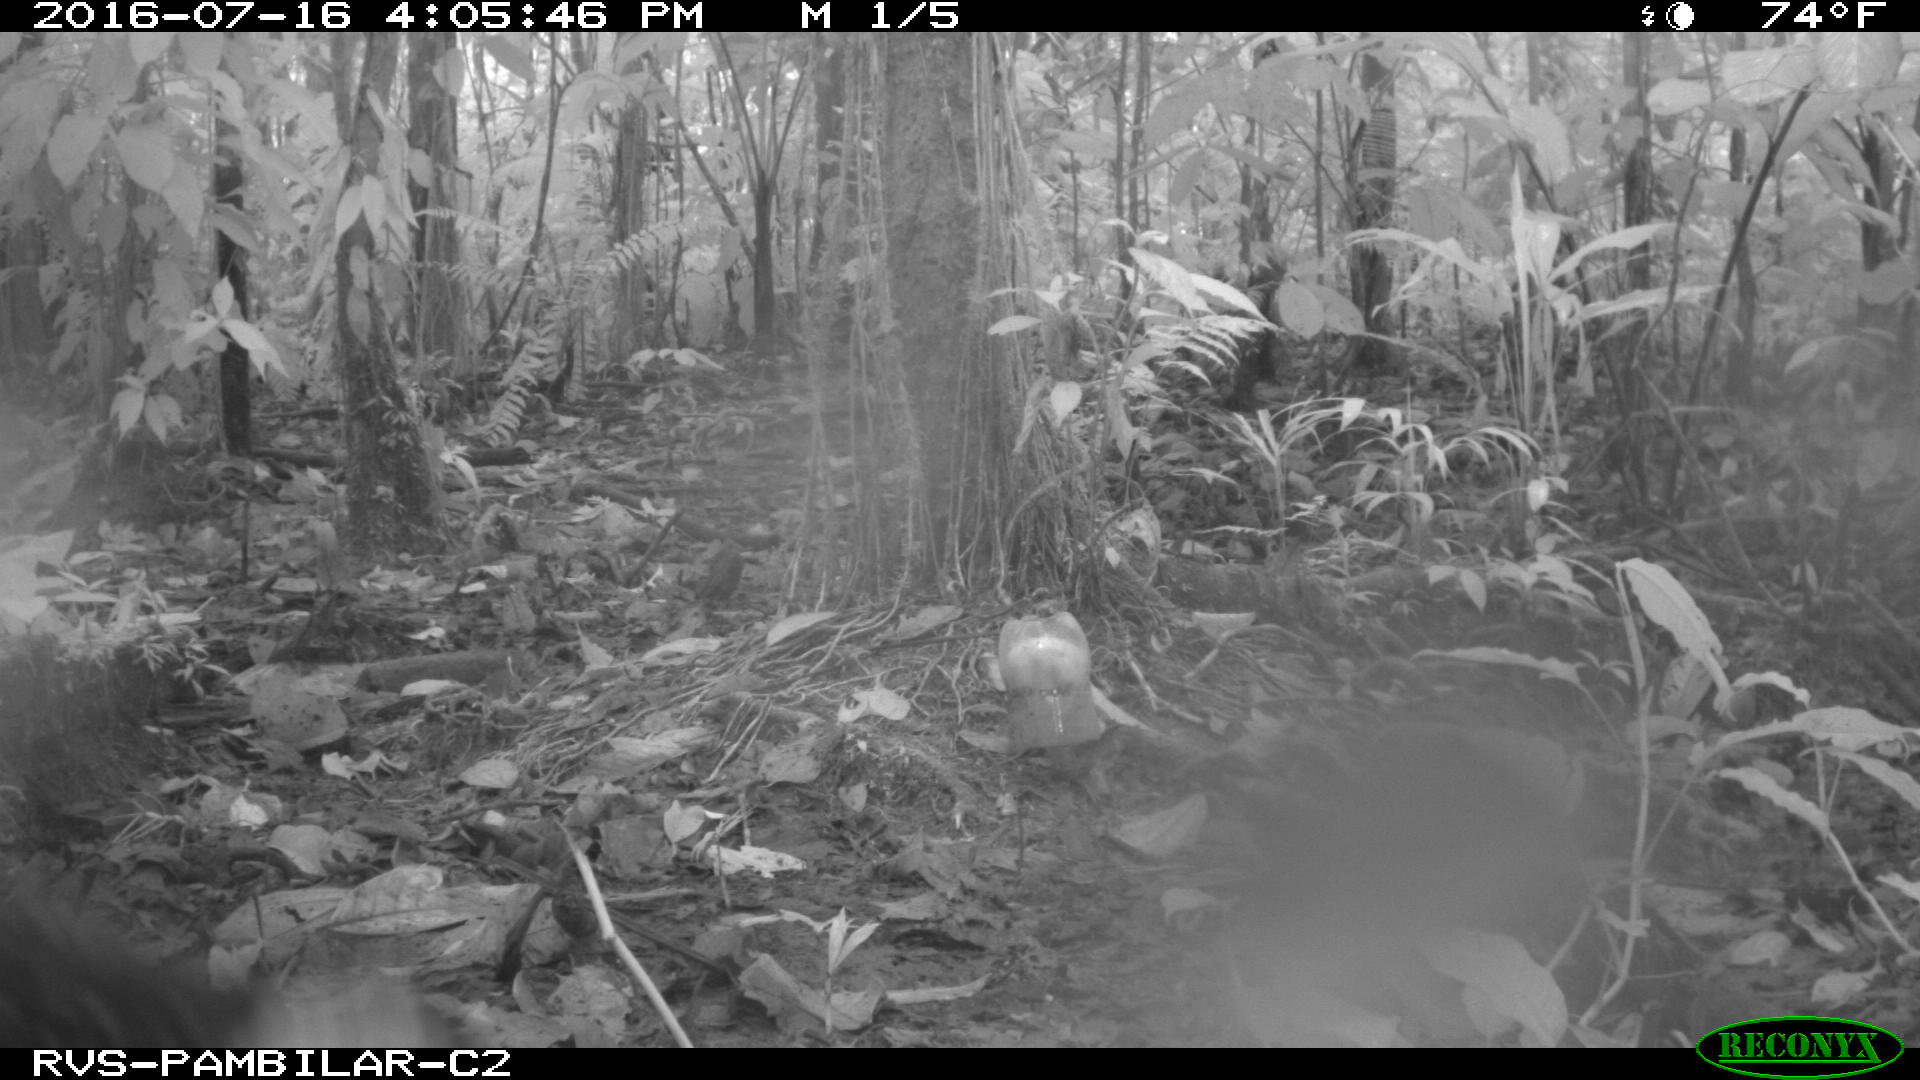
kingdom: Animalia
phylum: Chordata
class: Mammalia
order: Artiodactyla
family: Tayassuidae
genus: Pecari
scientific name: Pecari tajacu
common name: Collared peccary
